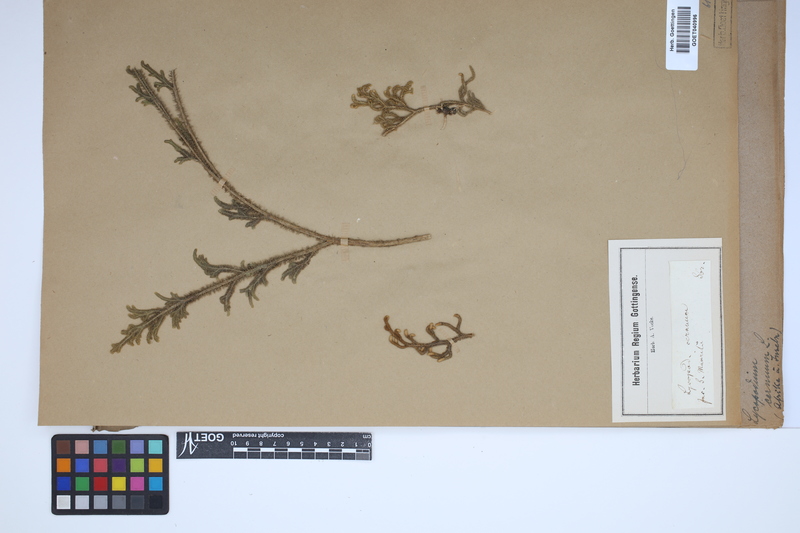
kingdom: Plantae
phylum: Tracheophyta
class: Lycopodiopsida
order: Lycopodiales
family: Lycopodiaceae
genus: Palhinhaea
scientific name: Palhinhaea cernua
